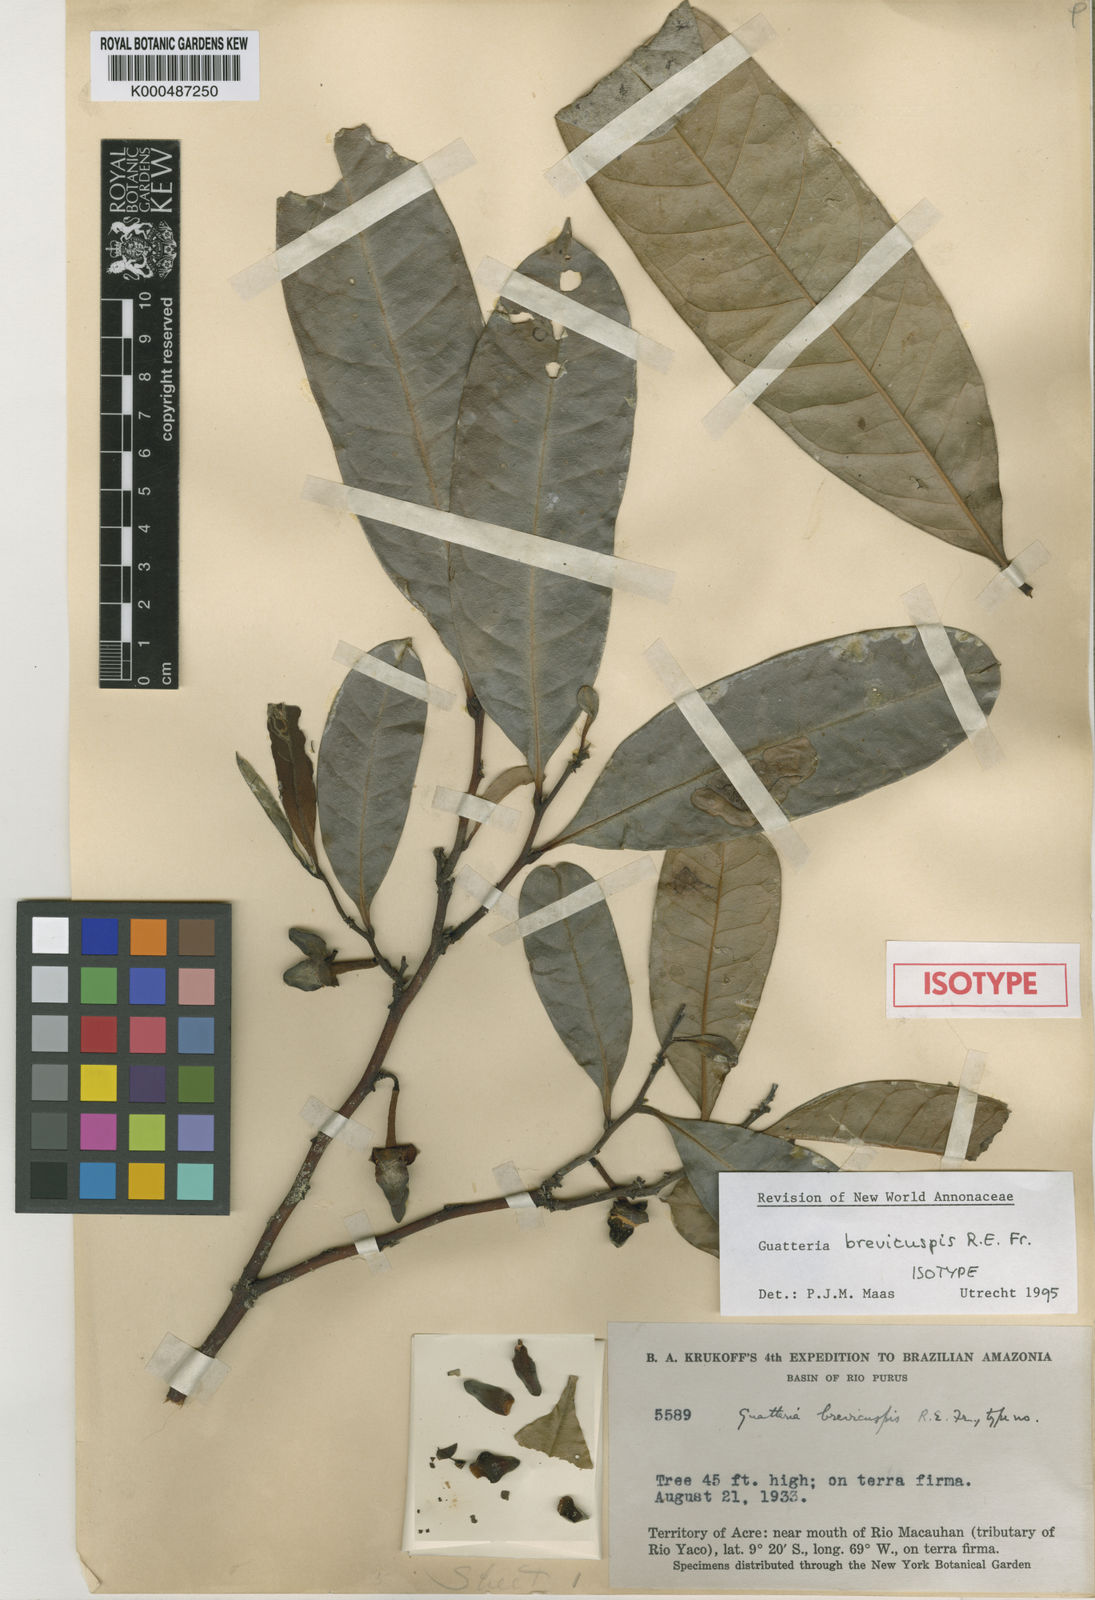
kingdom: Plantae
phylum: Tracheophyta
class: Magnoliopsida
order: Magnoliales
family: Annonaceae
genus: Guatteria
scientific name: Guatteria blepharophylla
